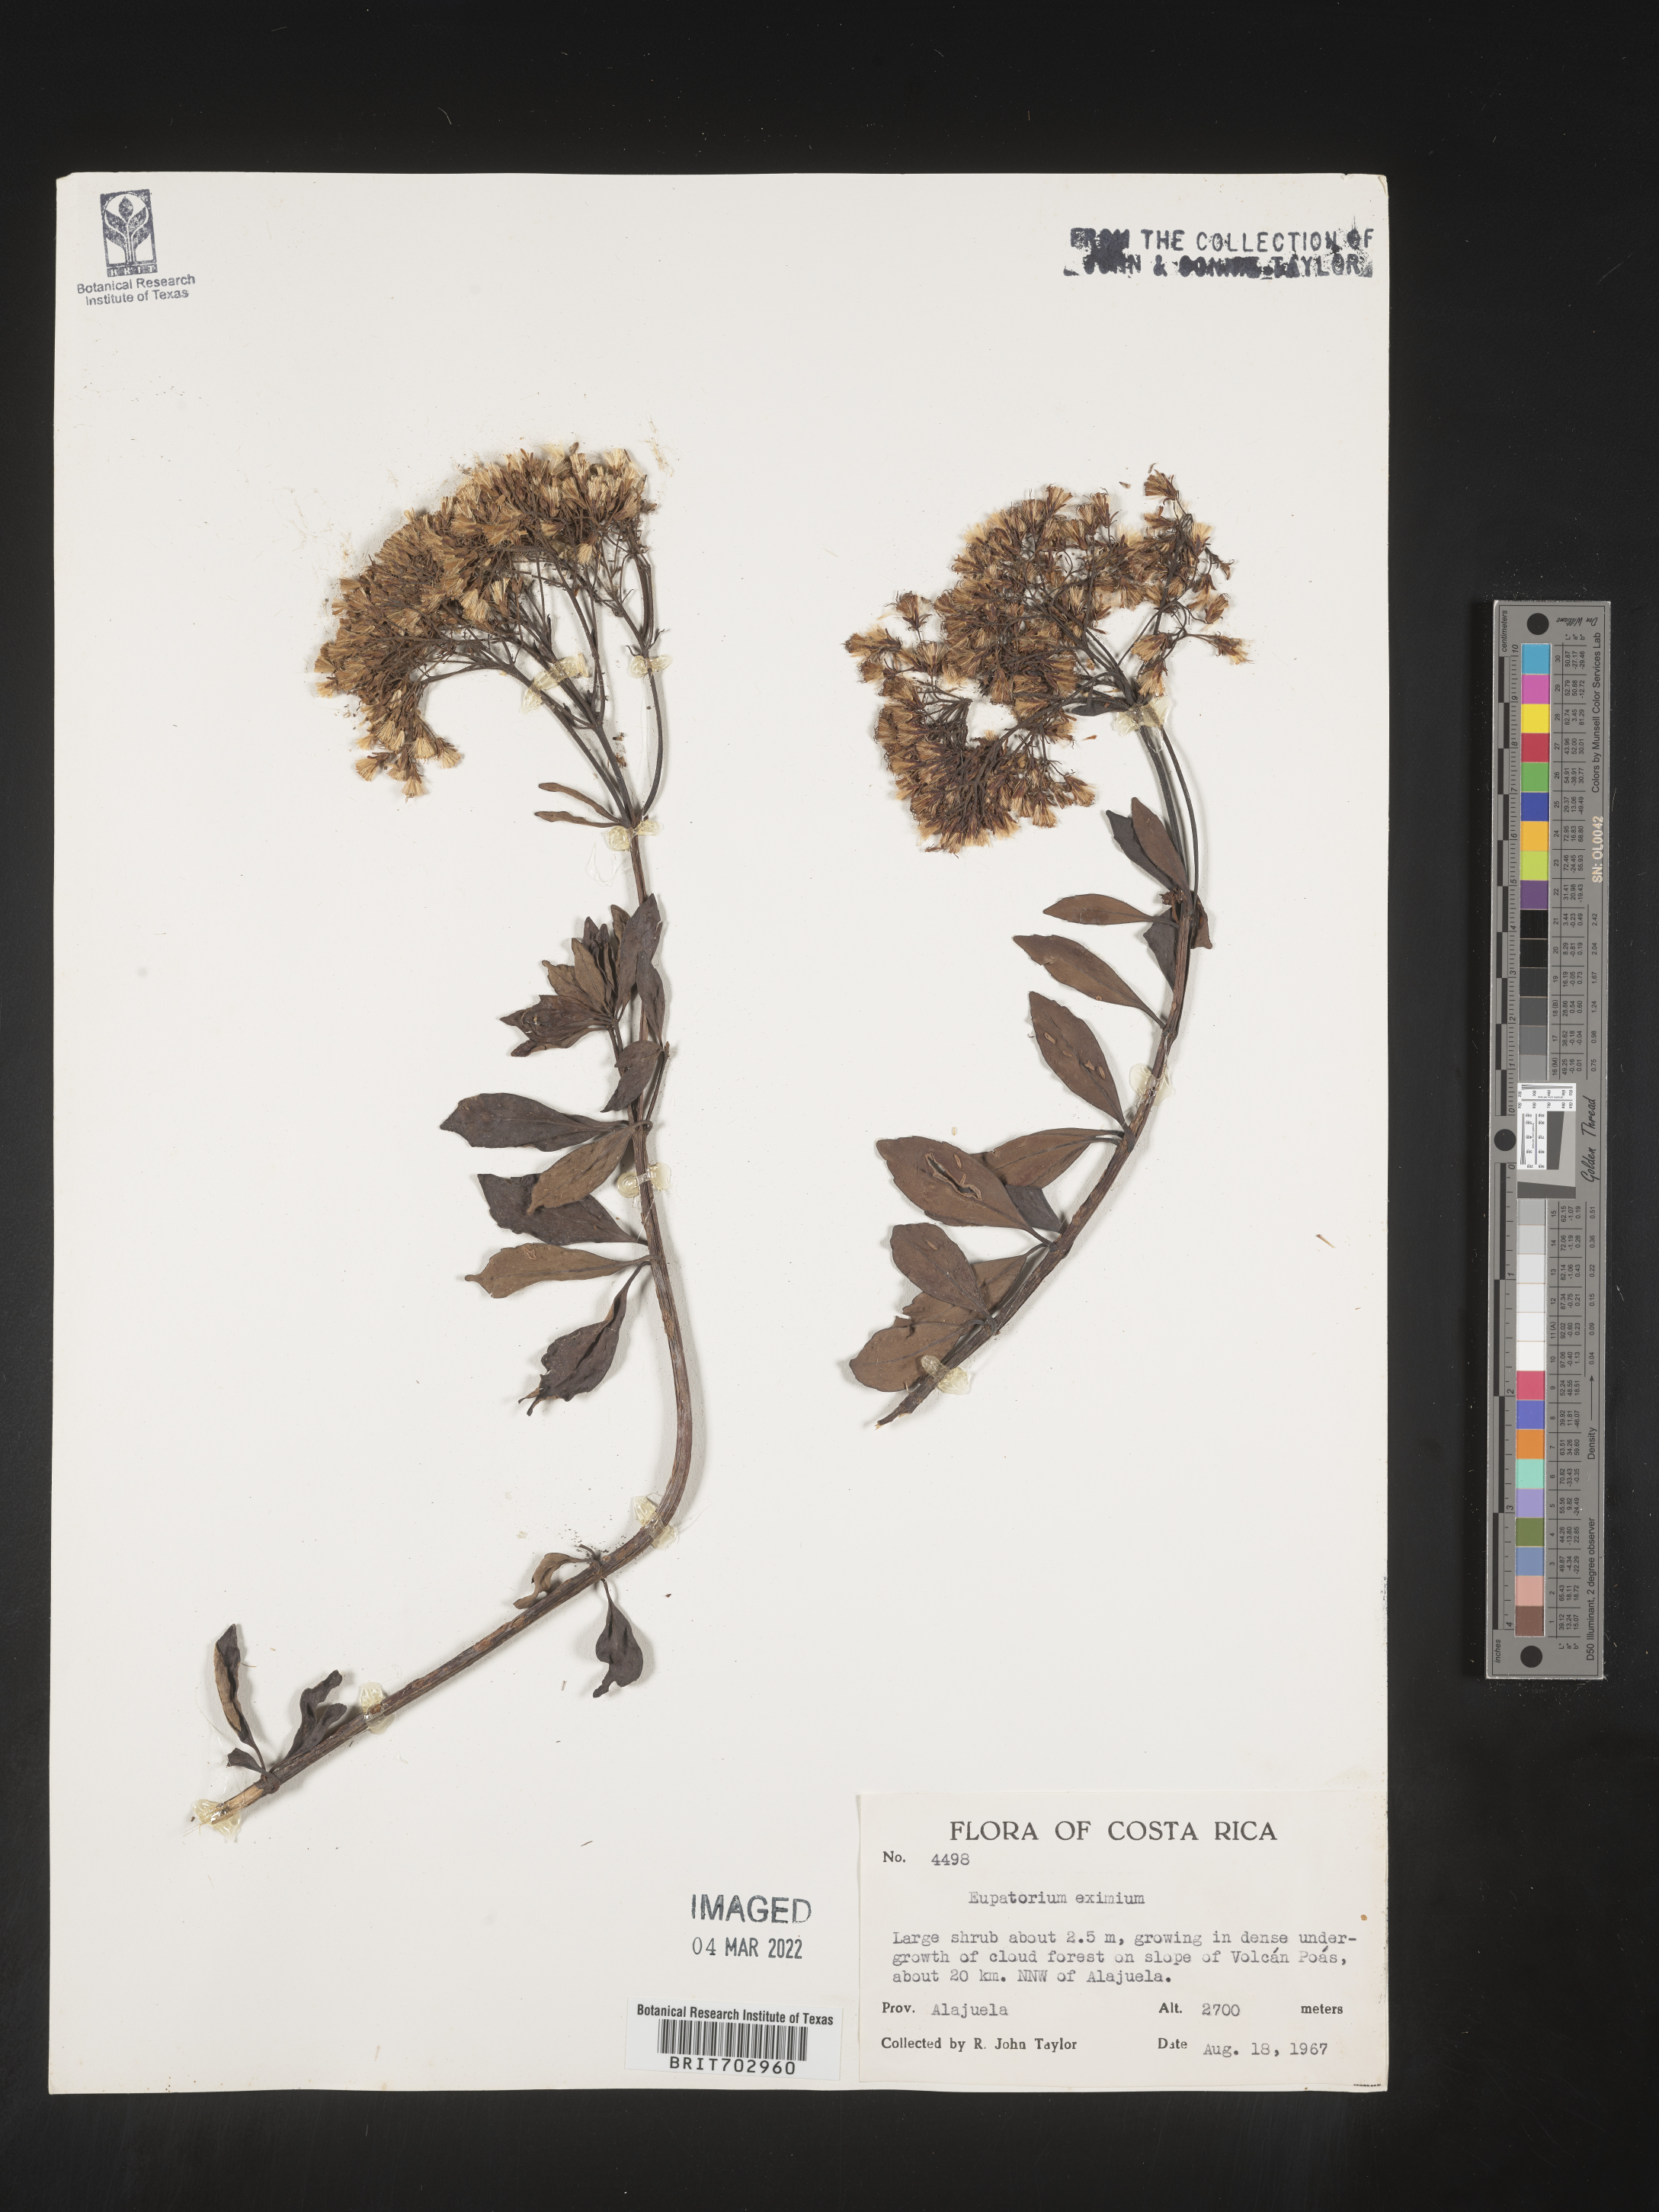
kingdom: Plantae
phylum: Tracheophyta
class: Magnoliopsida
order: Asterales
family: Asteraceae
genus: Eupatorium
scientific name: Eupatorium
